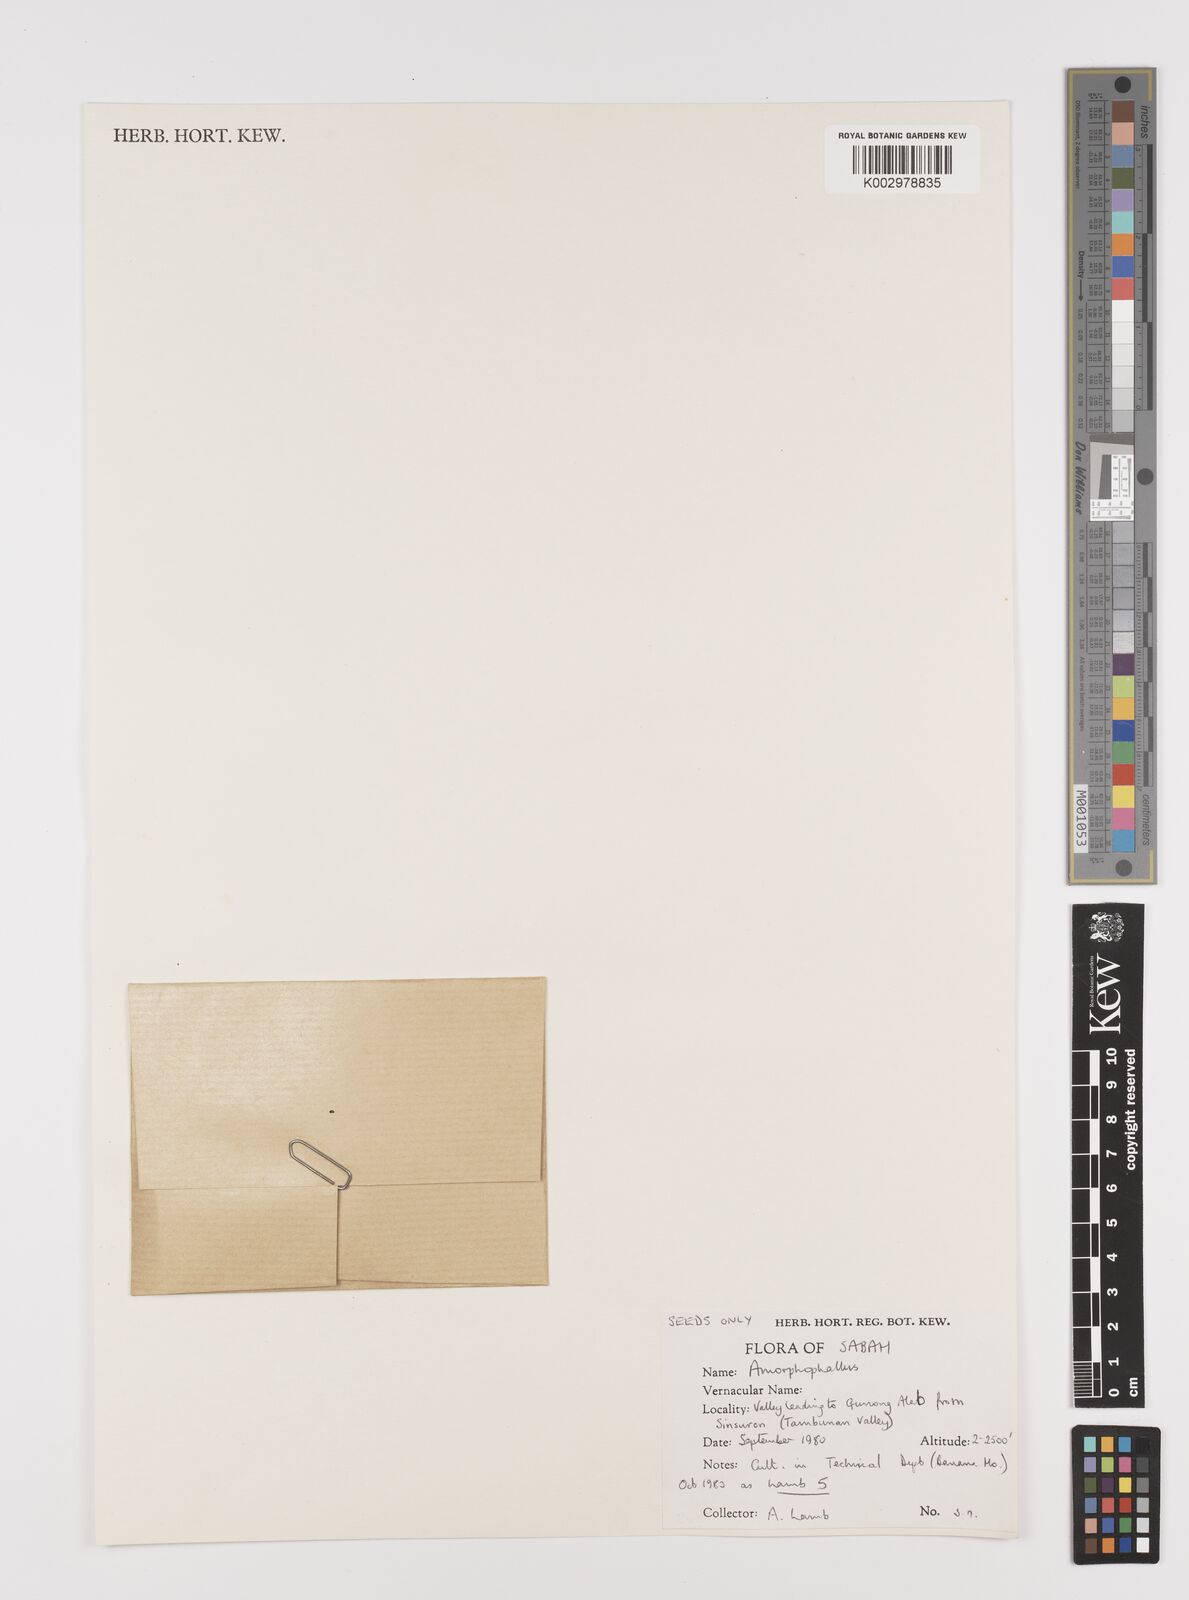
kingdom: Plantae
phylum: Tracheophyta
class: Liliopsida
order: Alismatales
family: Araceae
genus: Amorphophallus
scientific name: Amorphophallus
